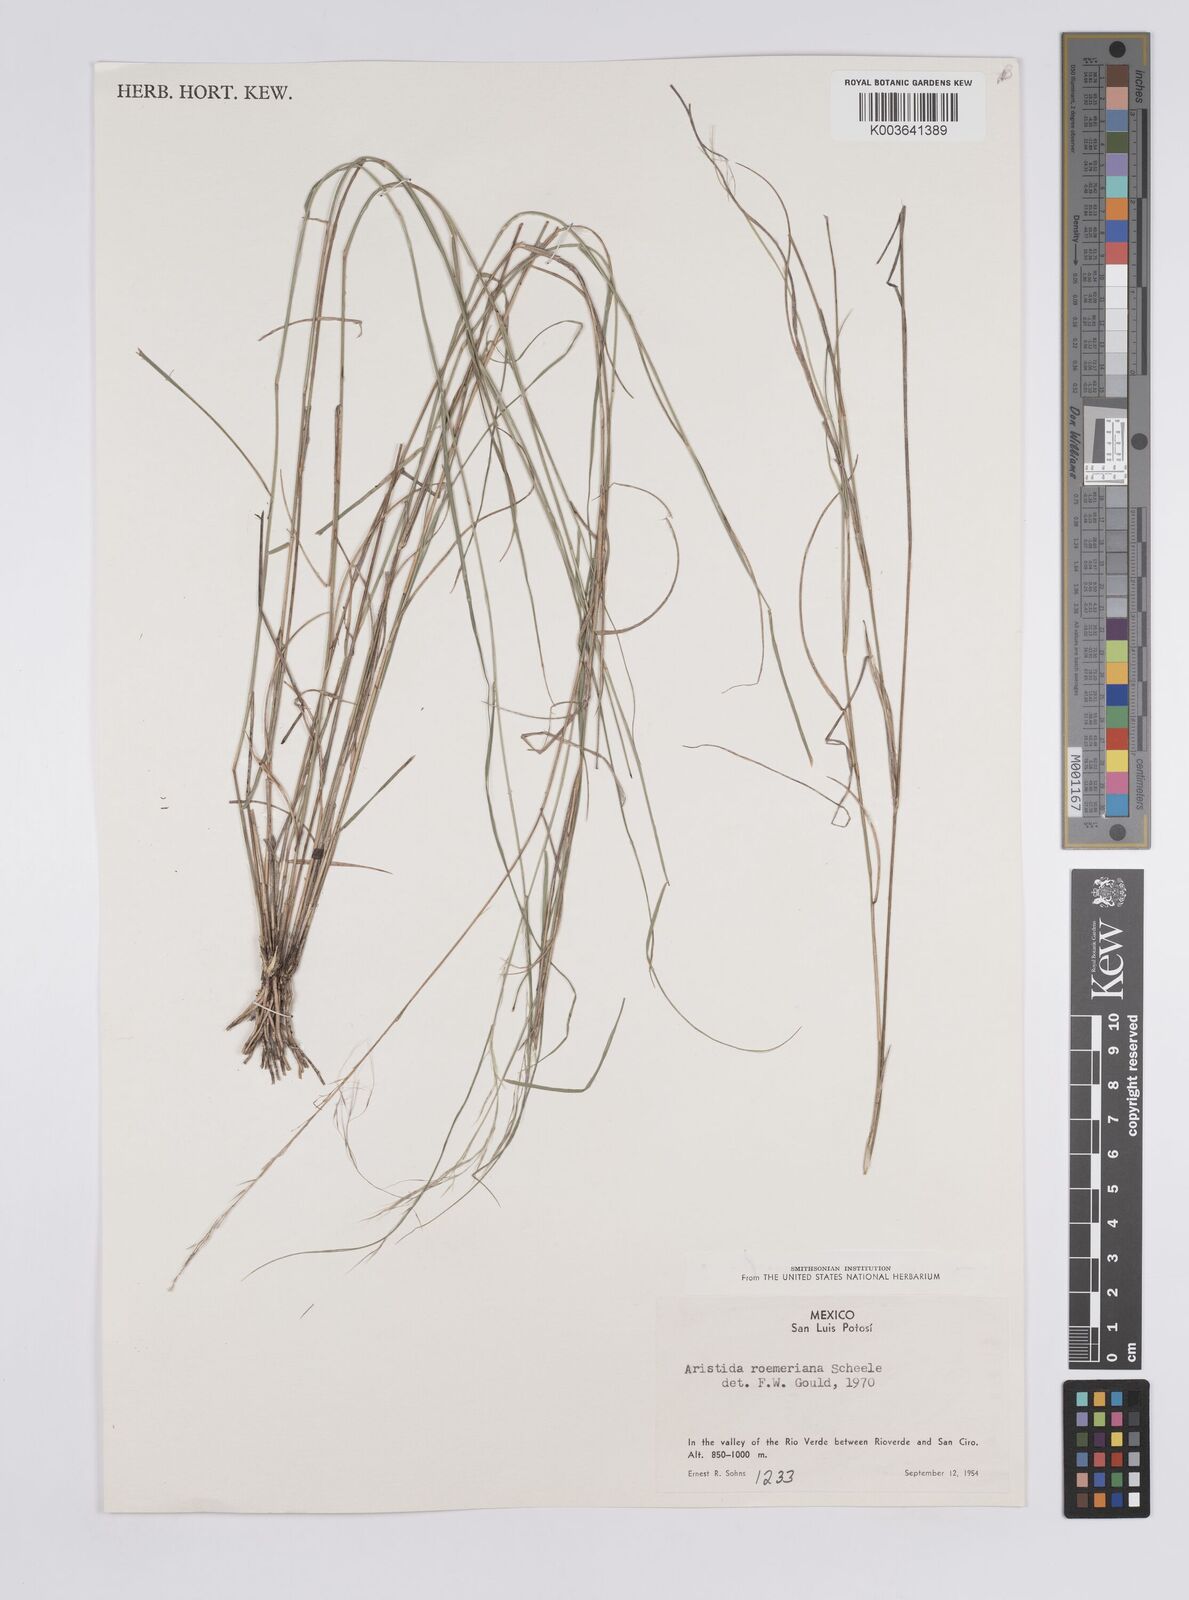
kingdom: Plantae
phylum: Tracheophyta
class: Liliopsida
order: Poales
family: Poaceae
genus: Aristida
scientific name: Aristida purpurea
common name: Purple threeawn
